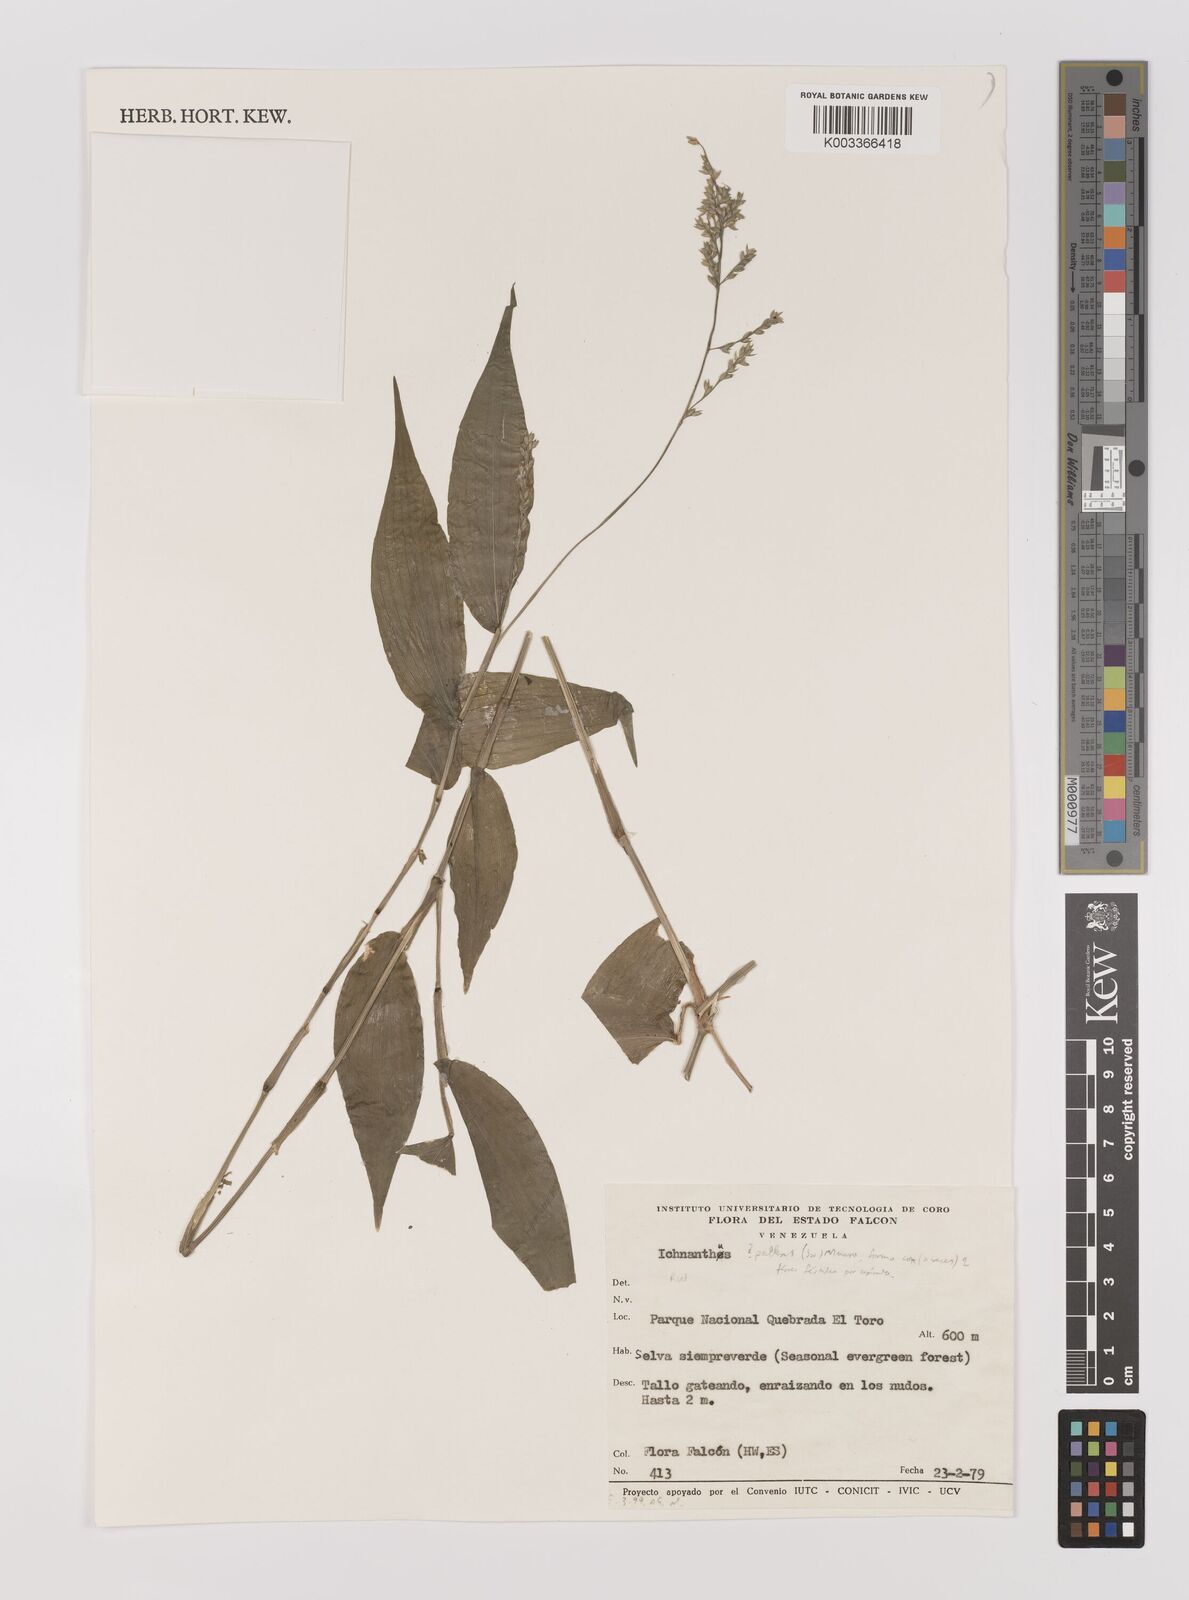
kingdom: Plantae
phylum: Tracheophyta
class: Liliopsida
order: Poales
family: Poaceae
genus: Ichnanthus
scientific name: Ichnanthus pallens
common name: Water grass
